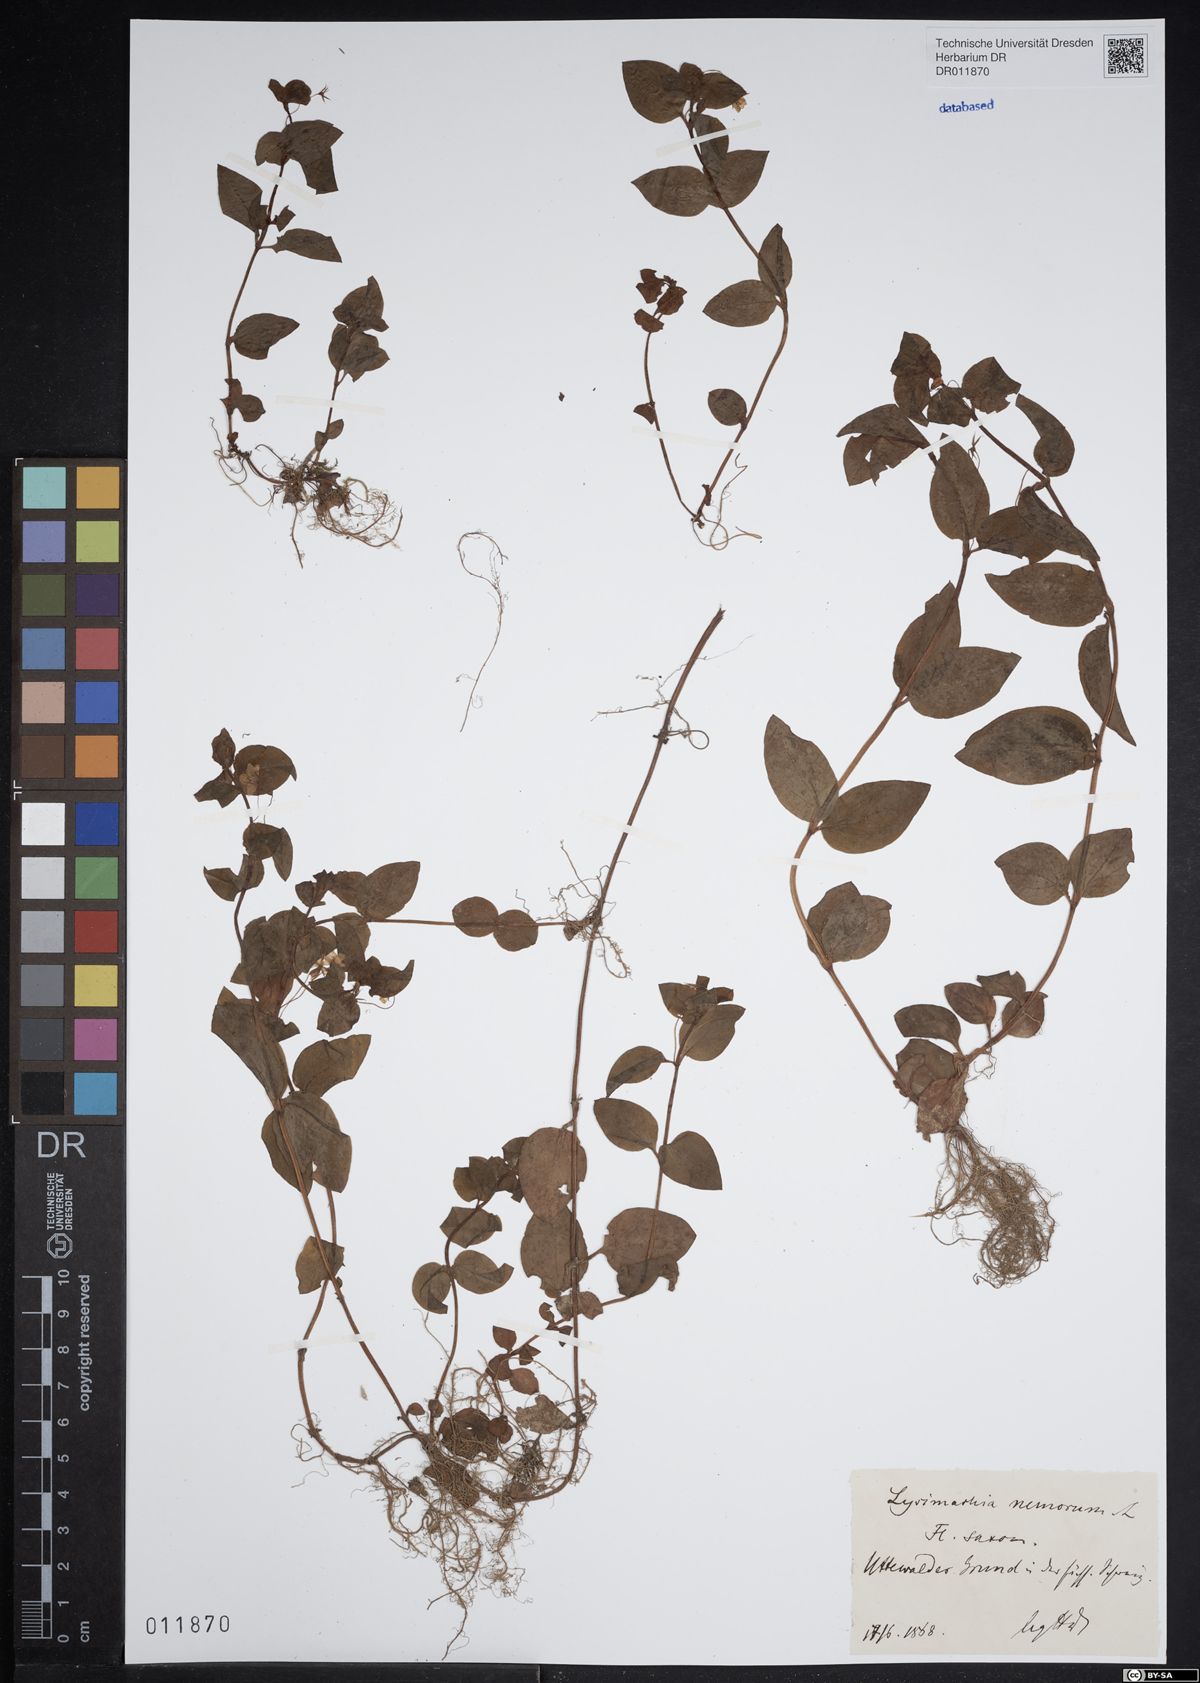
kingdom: Plantae
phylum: Tracheophyta
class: Magnoliopsida
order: Ericales
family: Primulaceae
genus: Lysimachia
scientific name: Lysimachia nemorum
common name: Yellow pimpernel
